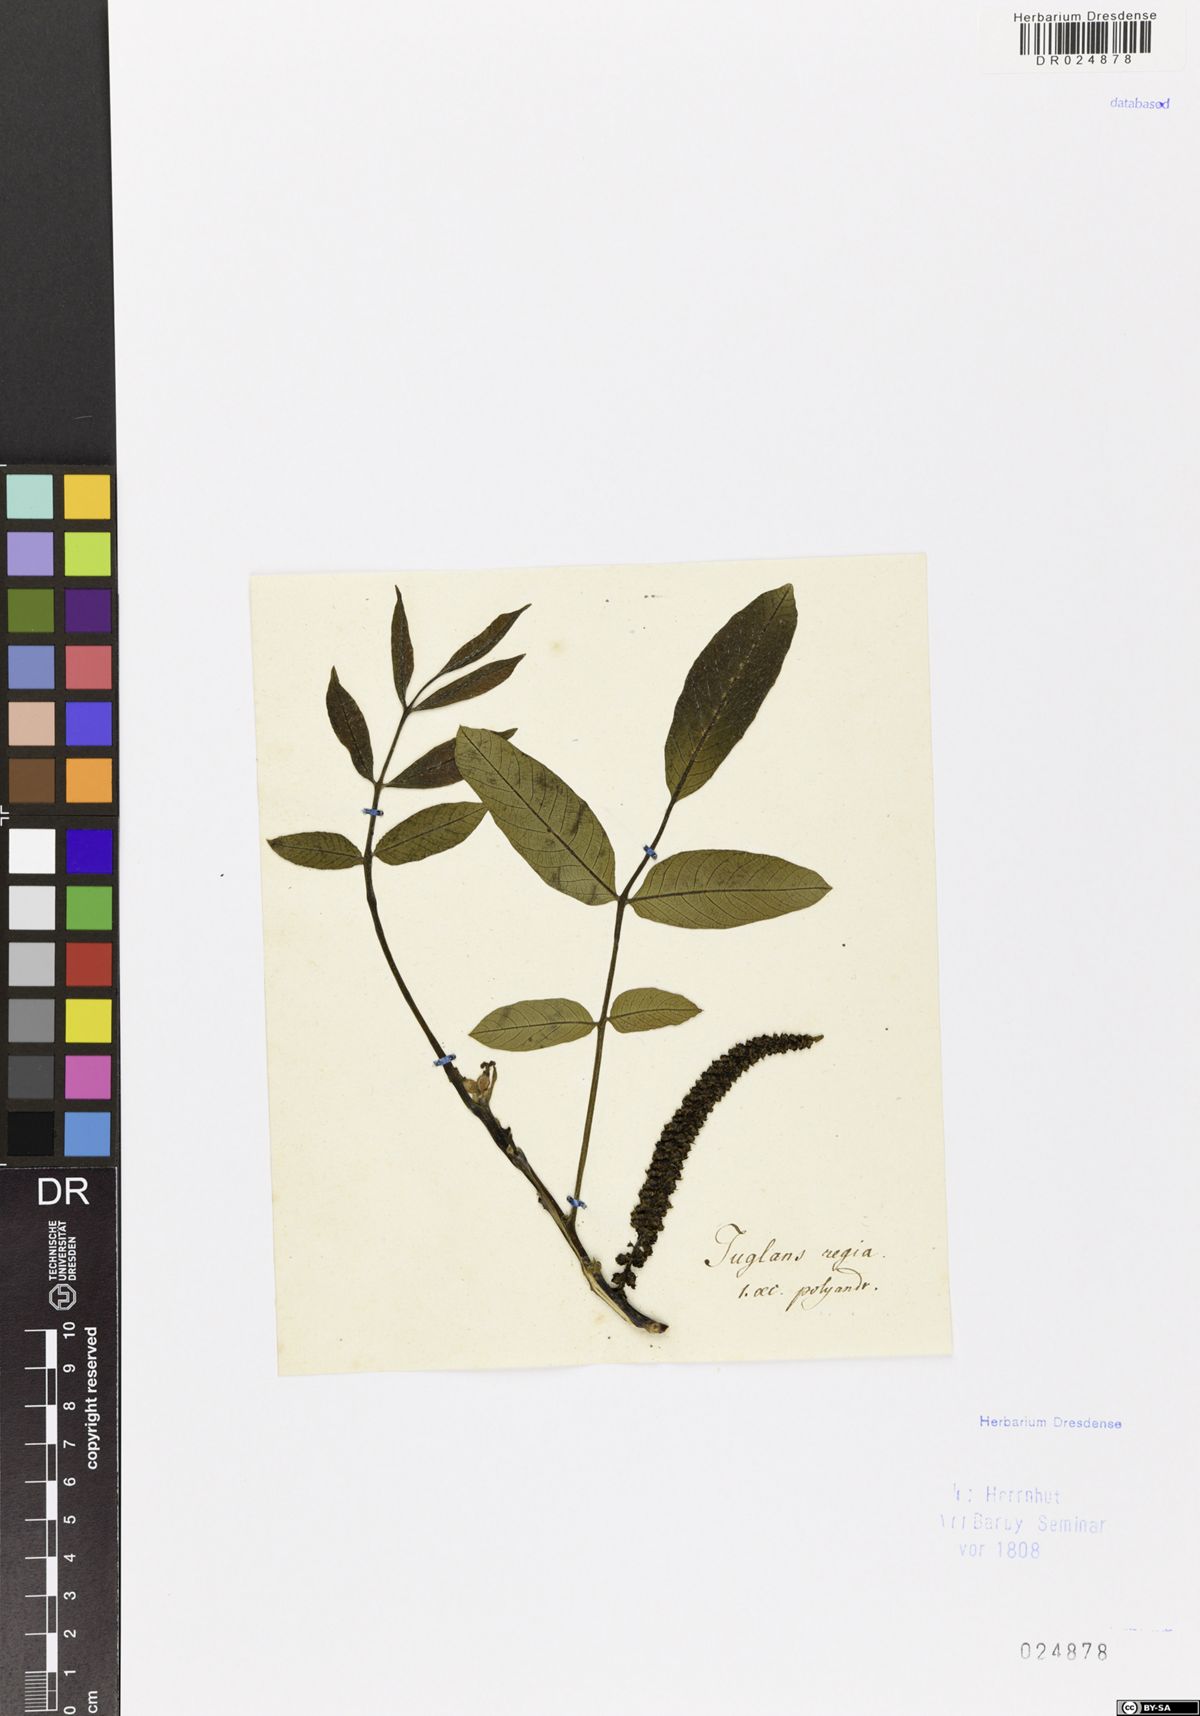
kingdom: Plantae
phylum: Tracheophyta
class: Magnoliopsida
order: Fagales
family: Juglandaceae
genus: Juglans
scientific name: Juglans regia
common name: Walnut
